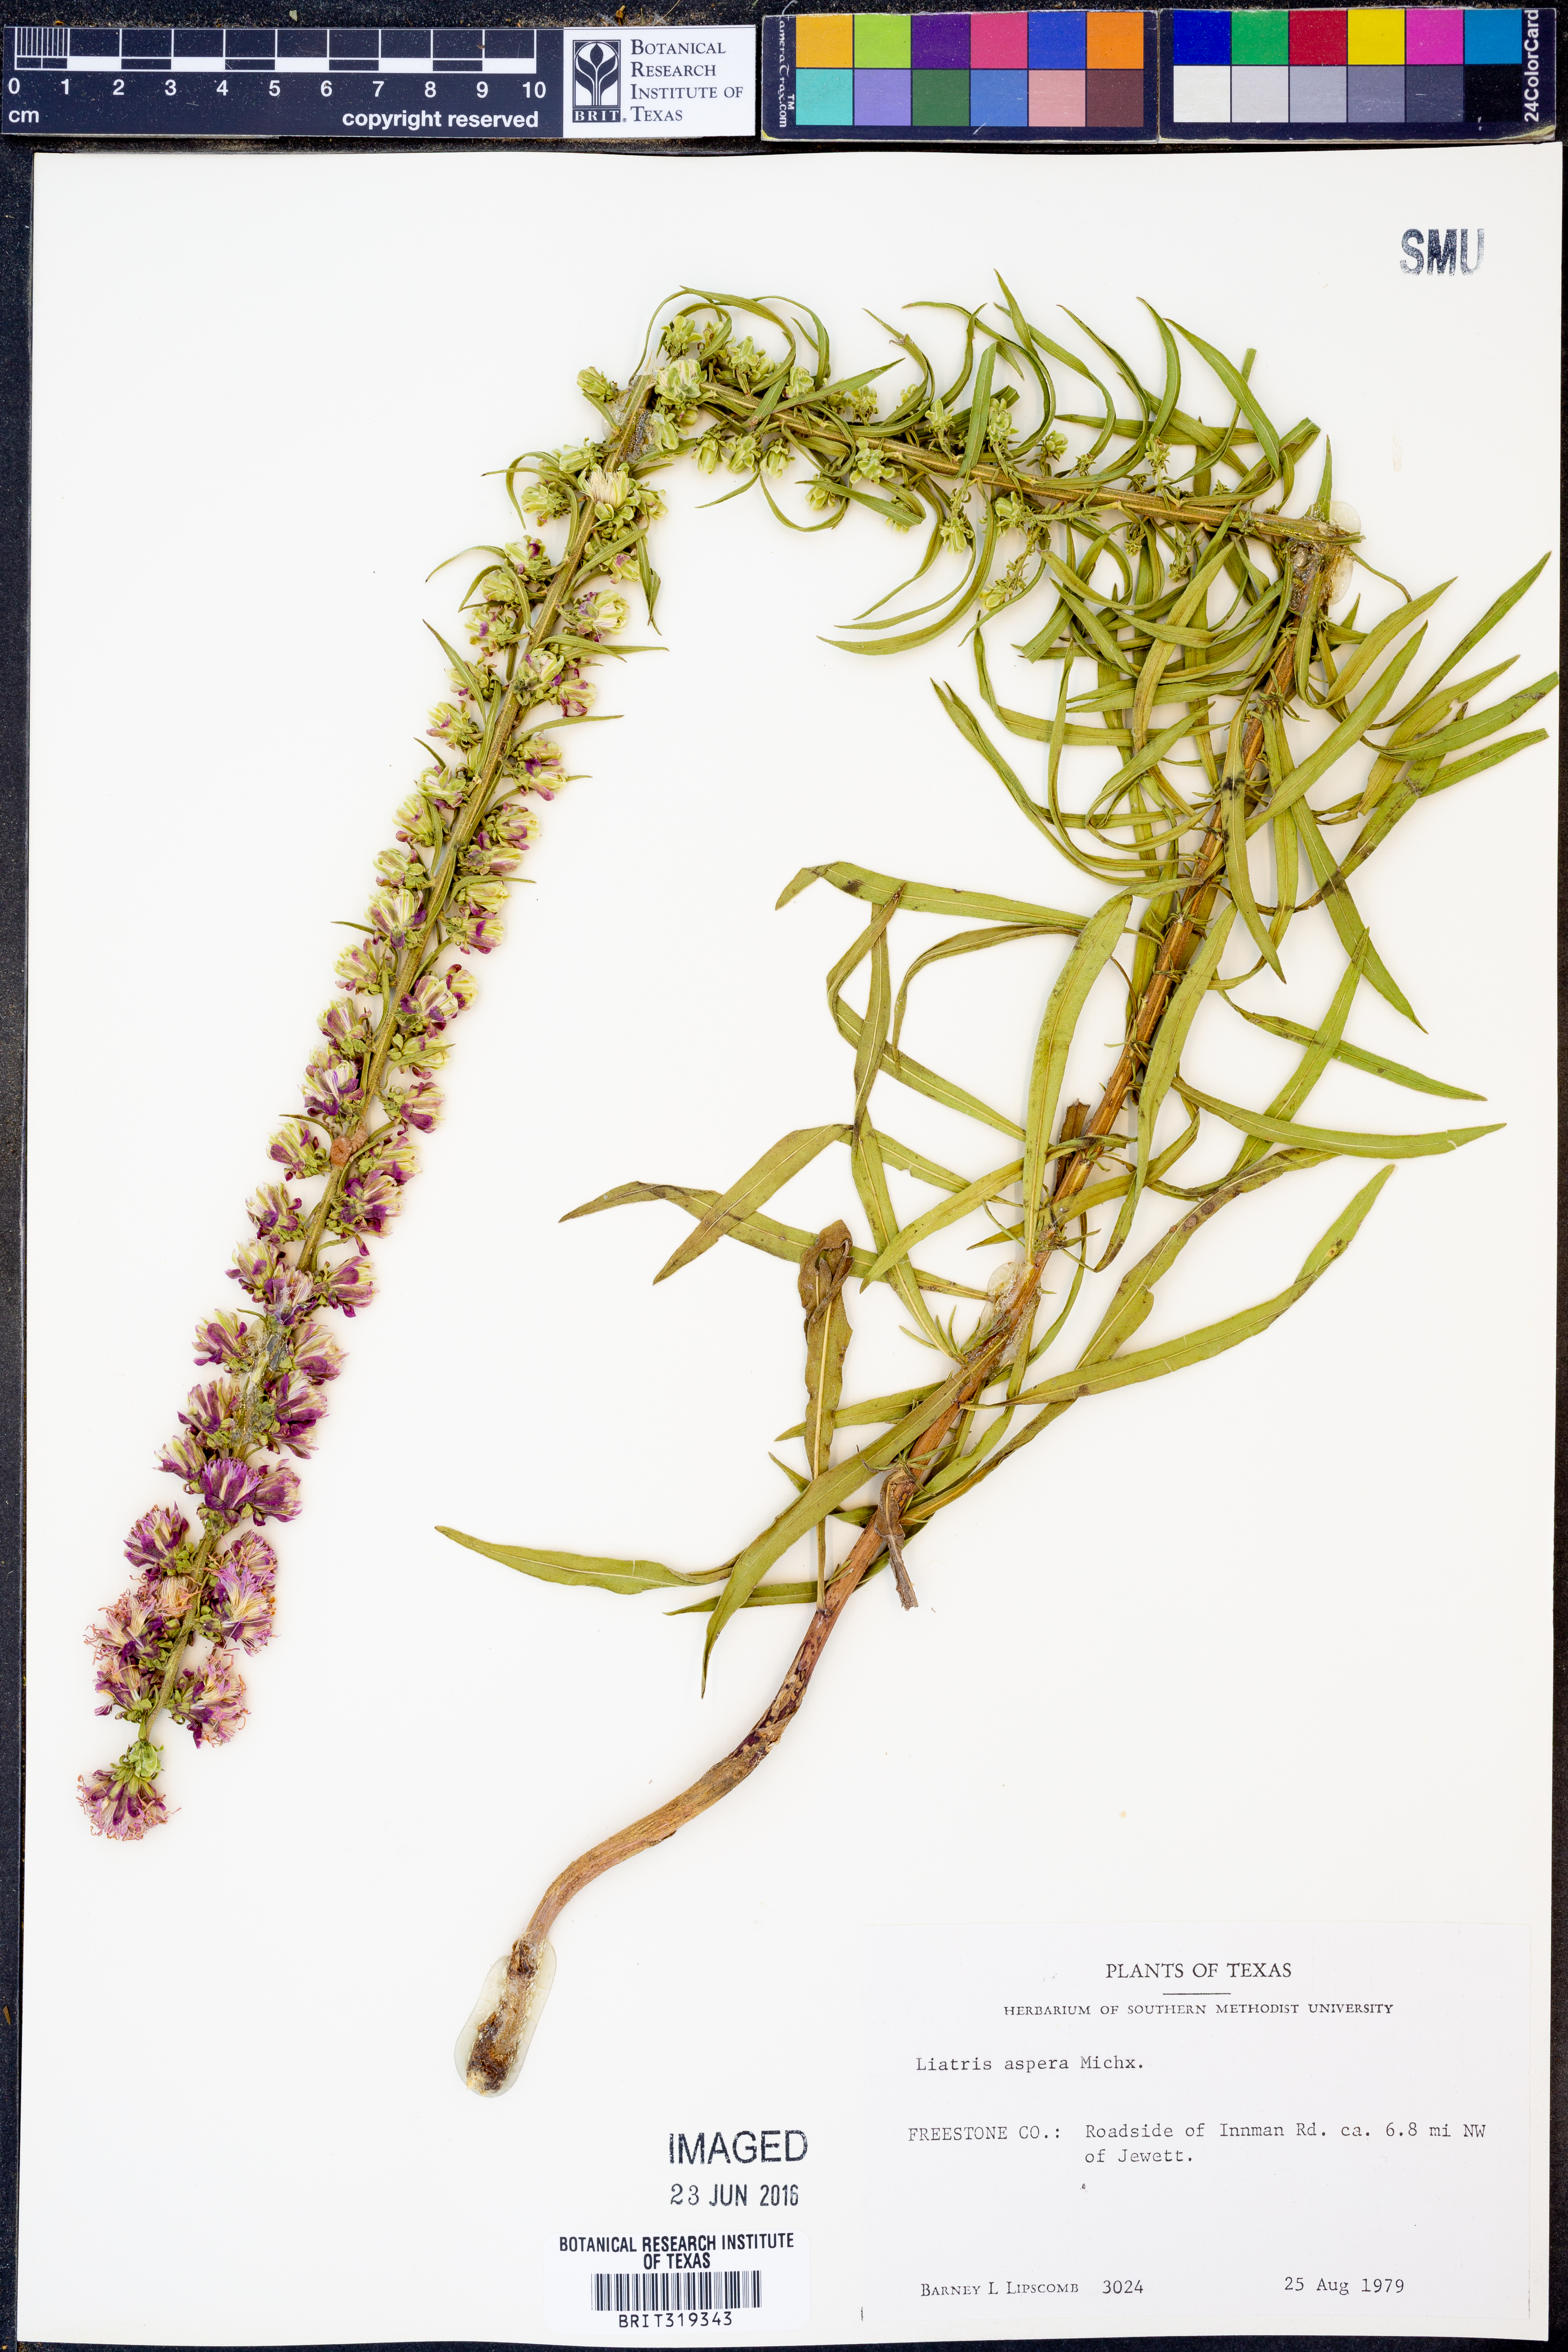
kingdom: Plantae
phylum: Tracheophyta
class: Magnoliopsida
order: Asterales
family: Asteraceae
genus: Liatris
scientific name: Liatris aspera
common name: Lacerate blazing-star
